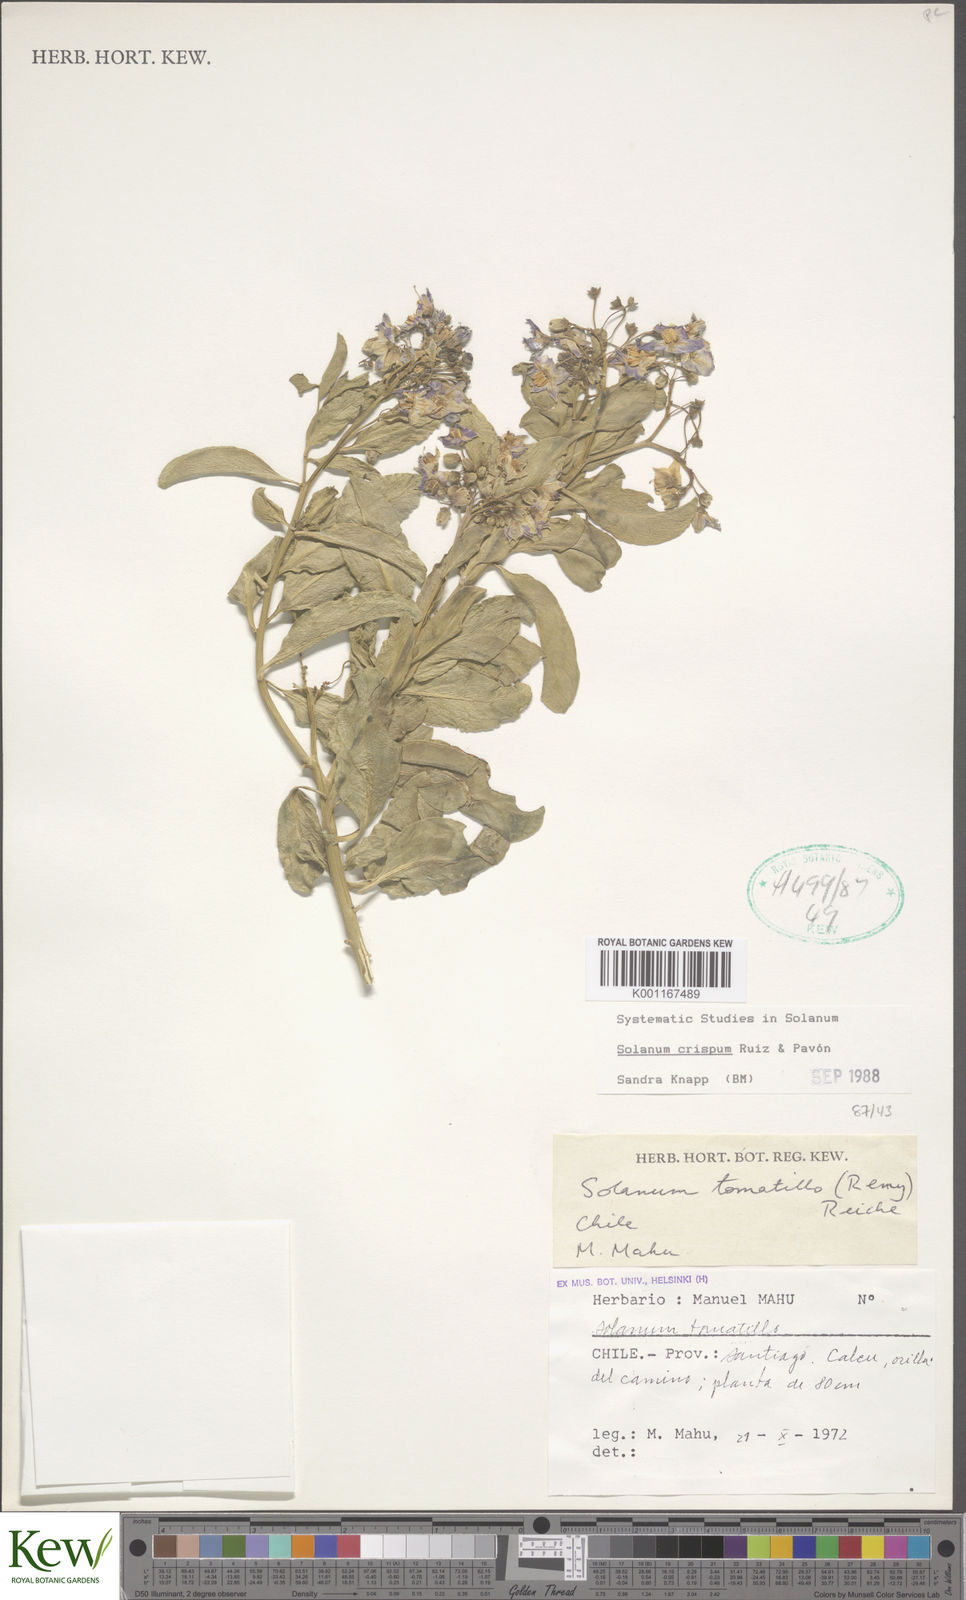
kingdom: Plantae
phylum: Tracheophyta
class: Magnoliopsida
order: Solanales
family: Solanaceae
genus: Solanum
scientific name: Solanum crispum
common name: Chilean nightshade
